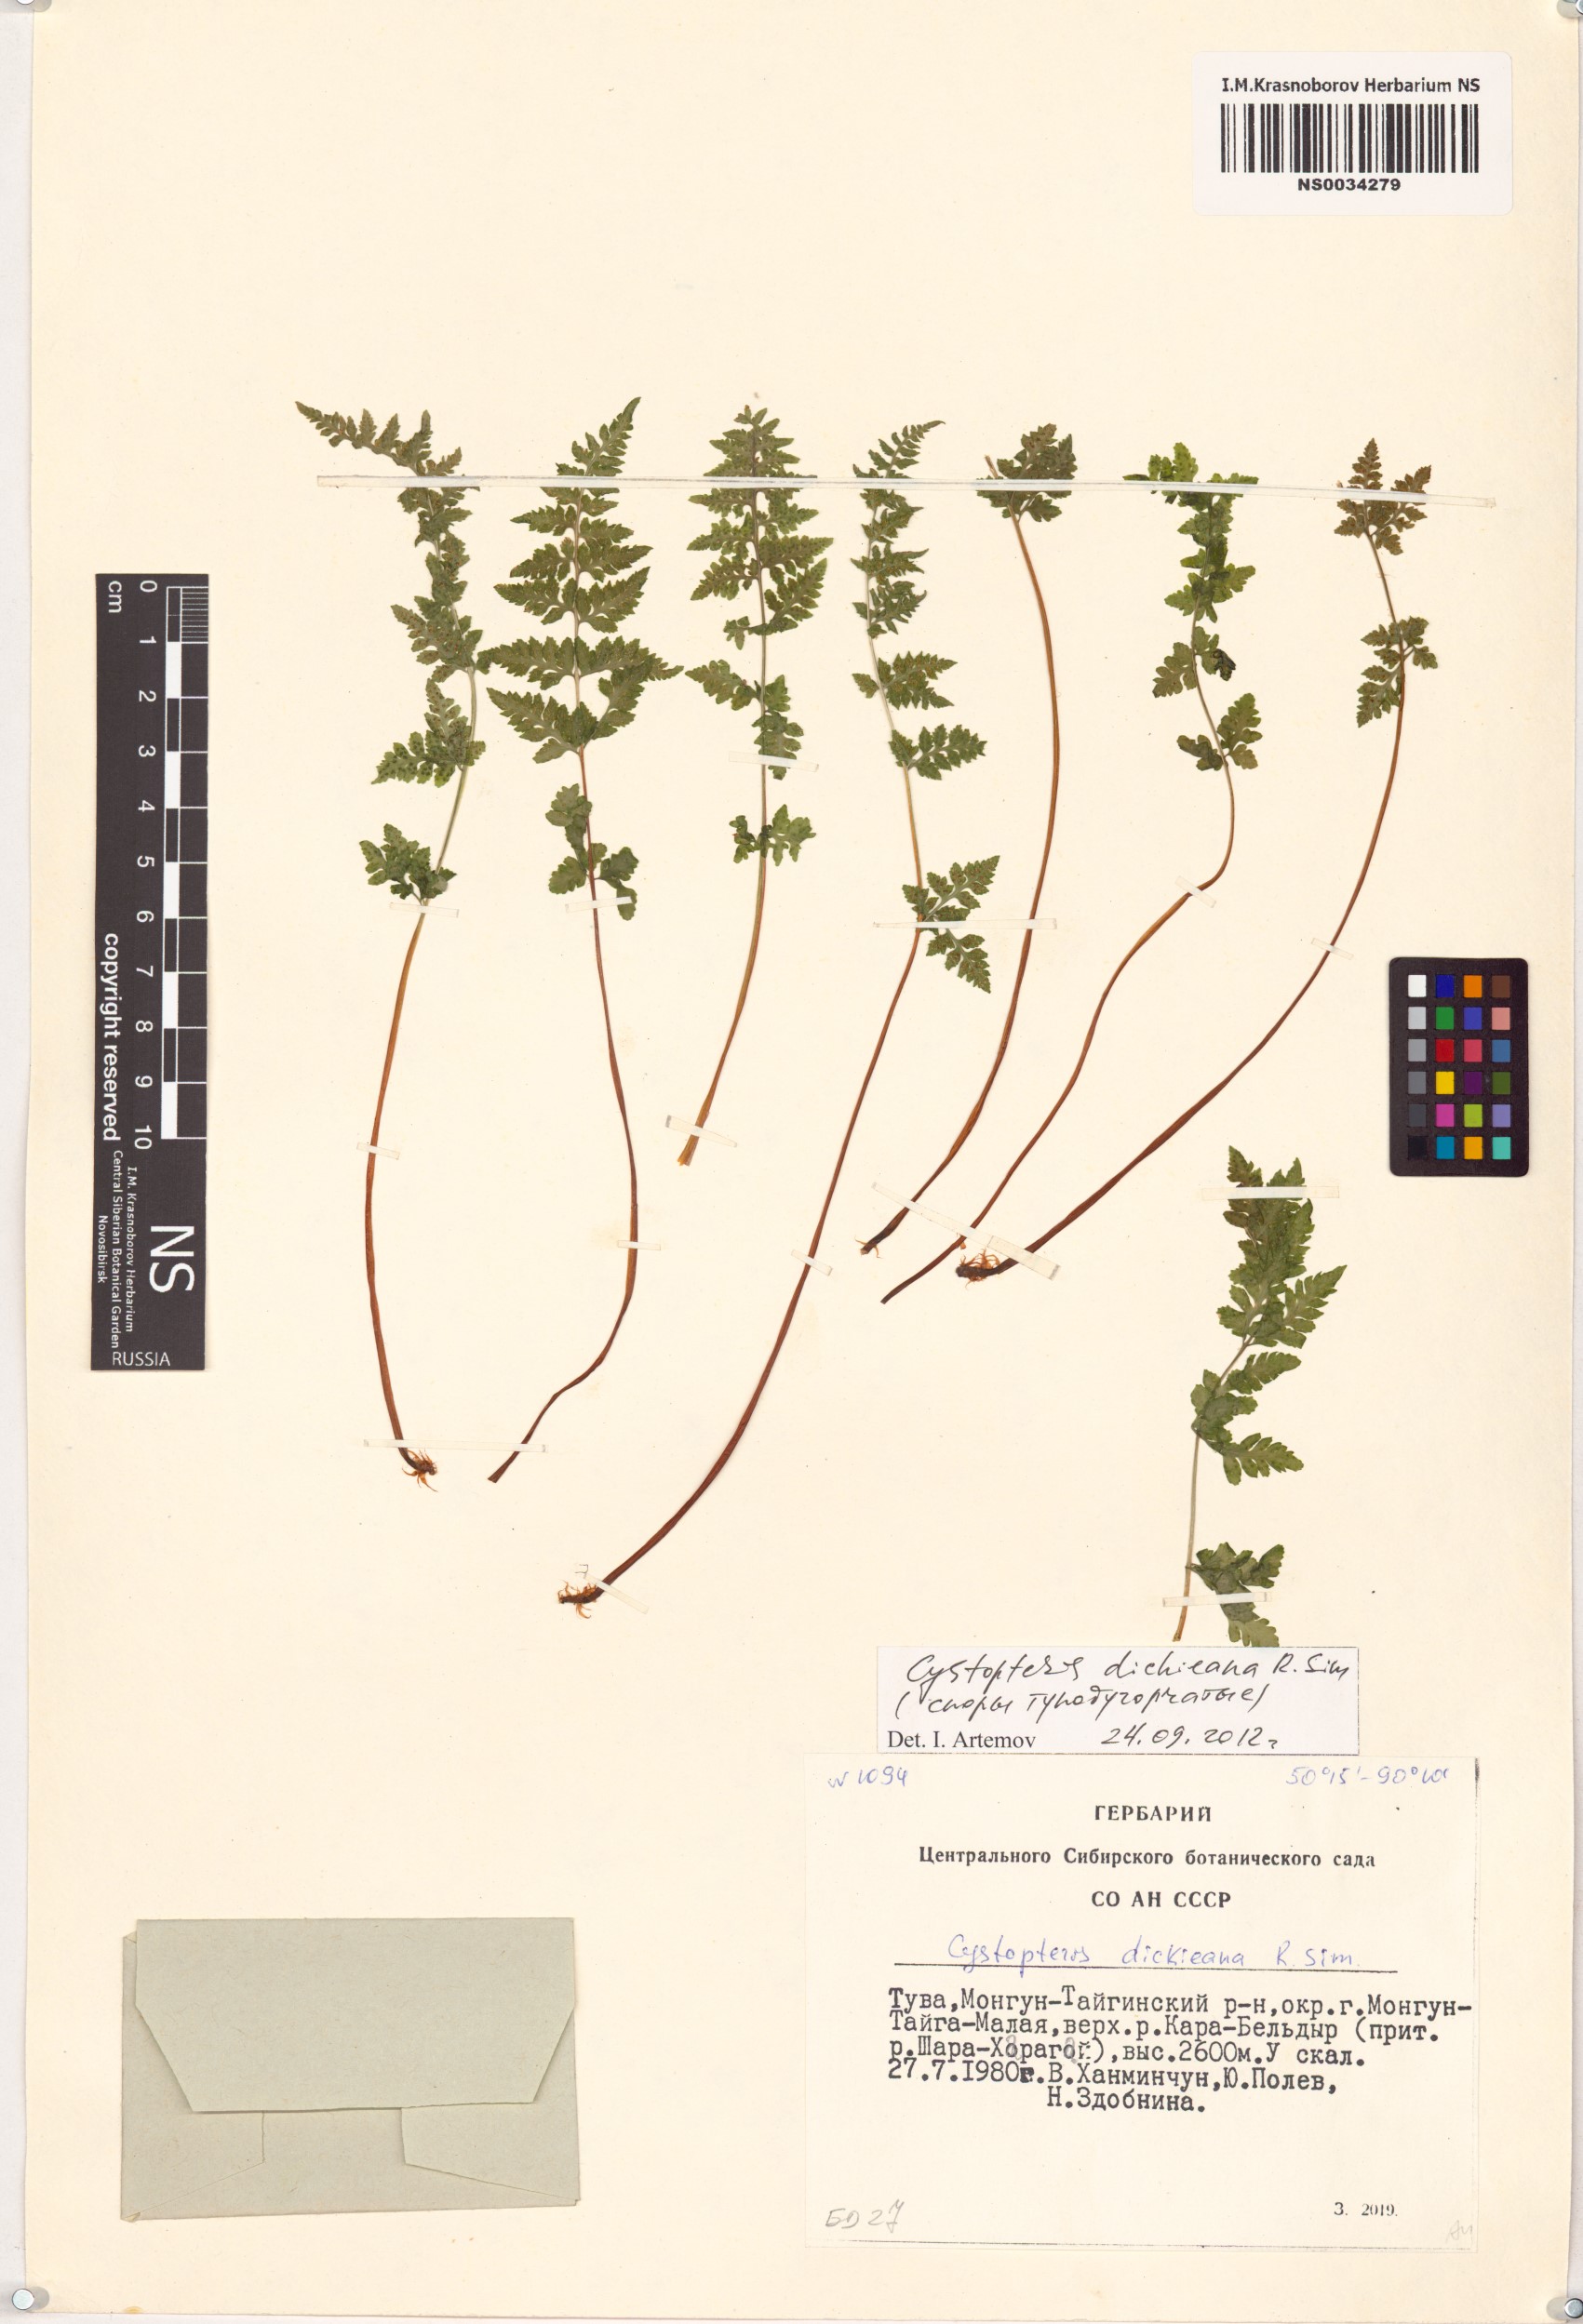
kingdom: Plantae
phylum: Tracheophyta
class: Polypodiopsida
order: Polypodiales
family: Cystopteridaceae
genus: Cystopteris
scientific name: Cystopteris dickieana
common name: Dickie's bladder-fern
